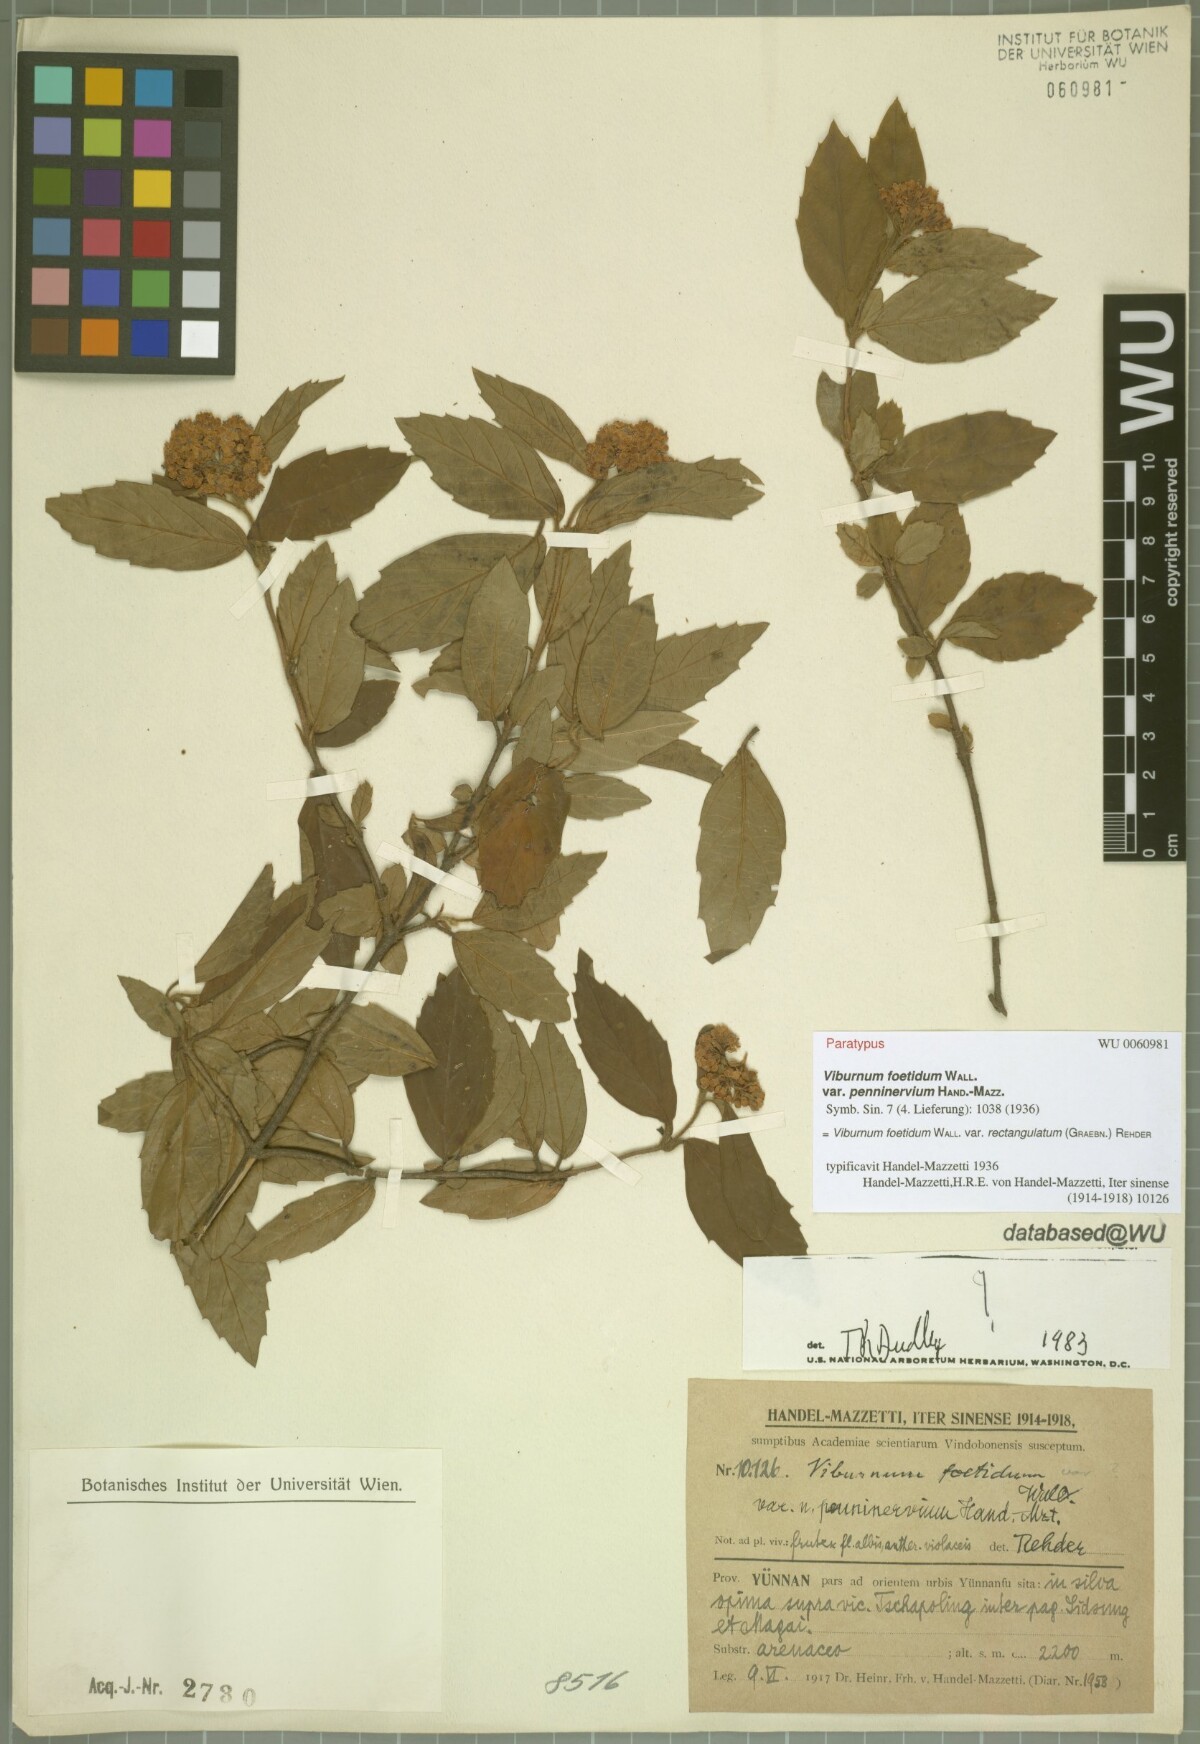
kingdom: Plantae
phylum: Tracheophyta
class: Magnoliopsida
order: Dipsacales
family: Viburnaceae
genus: Viburnum
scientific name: Viburnum foetidum
